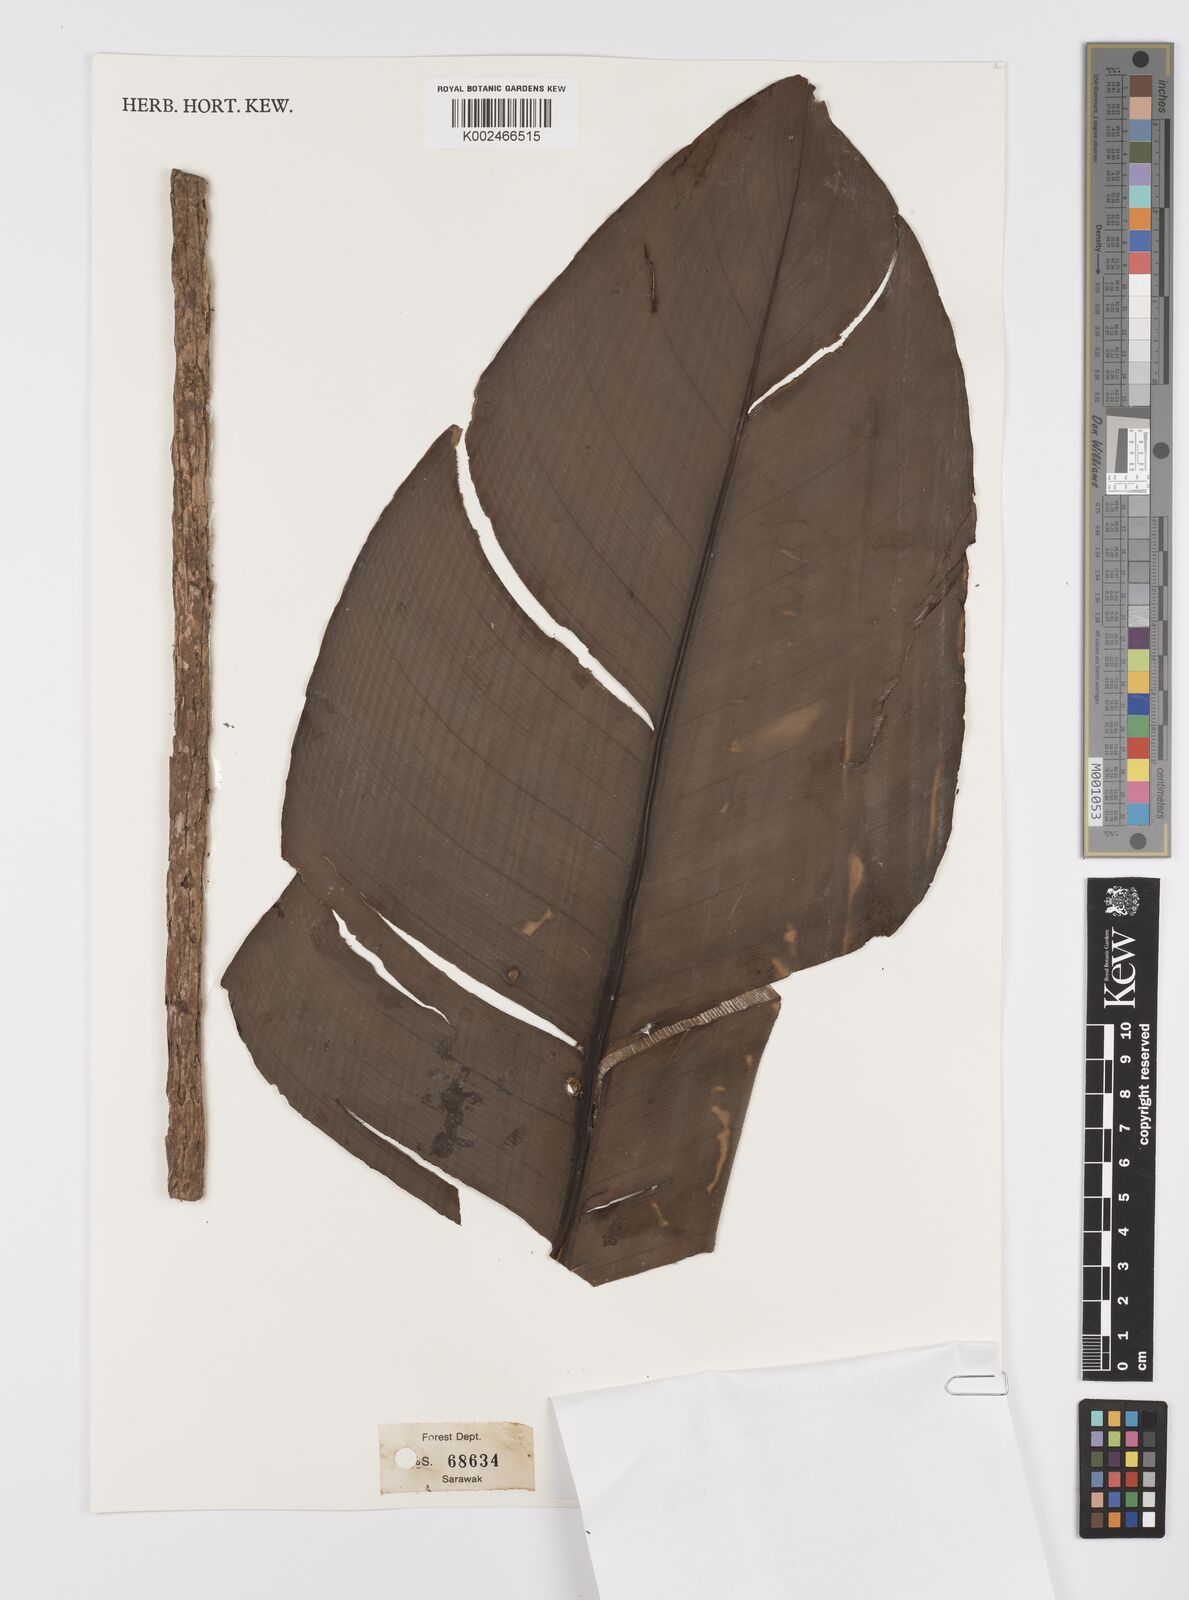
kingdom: Plantae
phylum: Tracheophyta
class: Liliopsida
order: Alismatales
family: Araceae
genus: Scindapsus
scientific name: Scindapsus glaucescens
